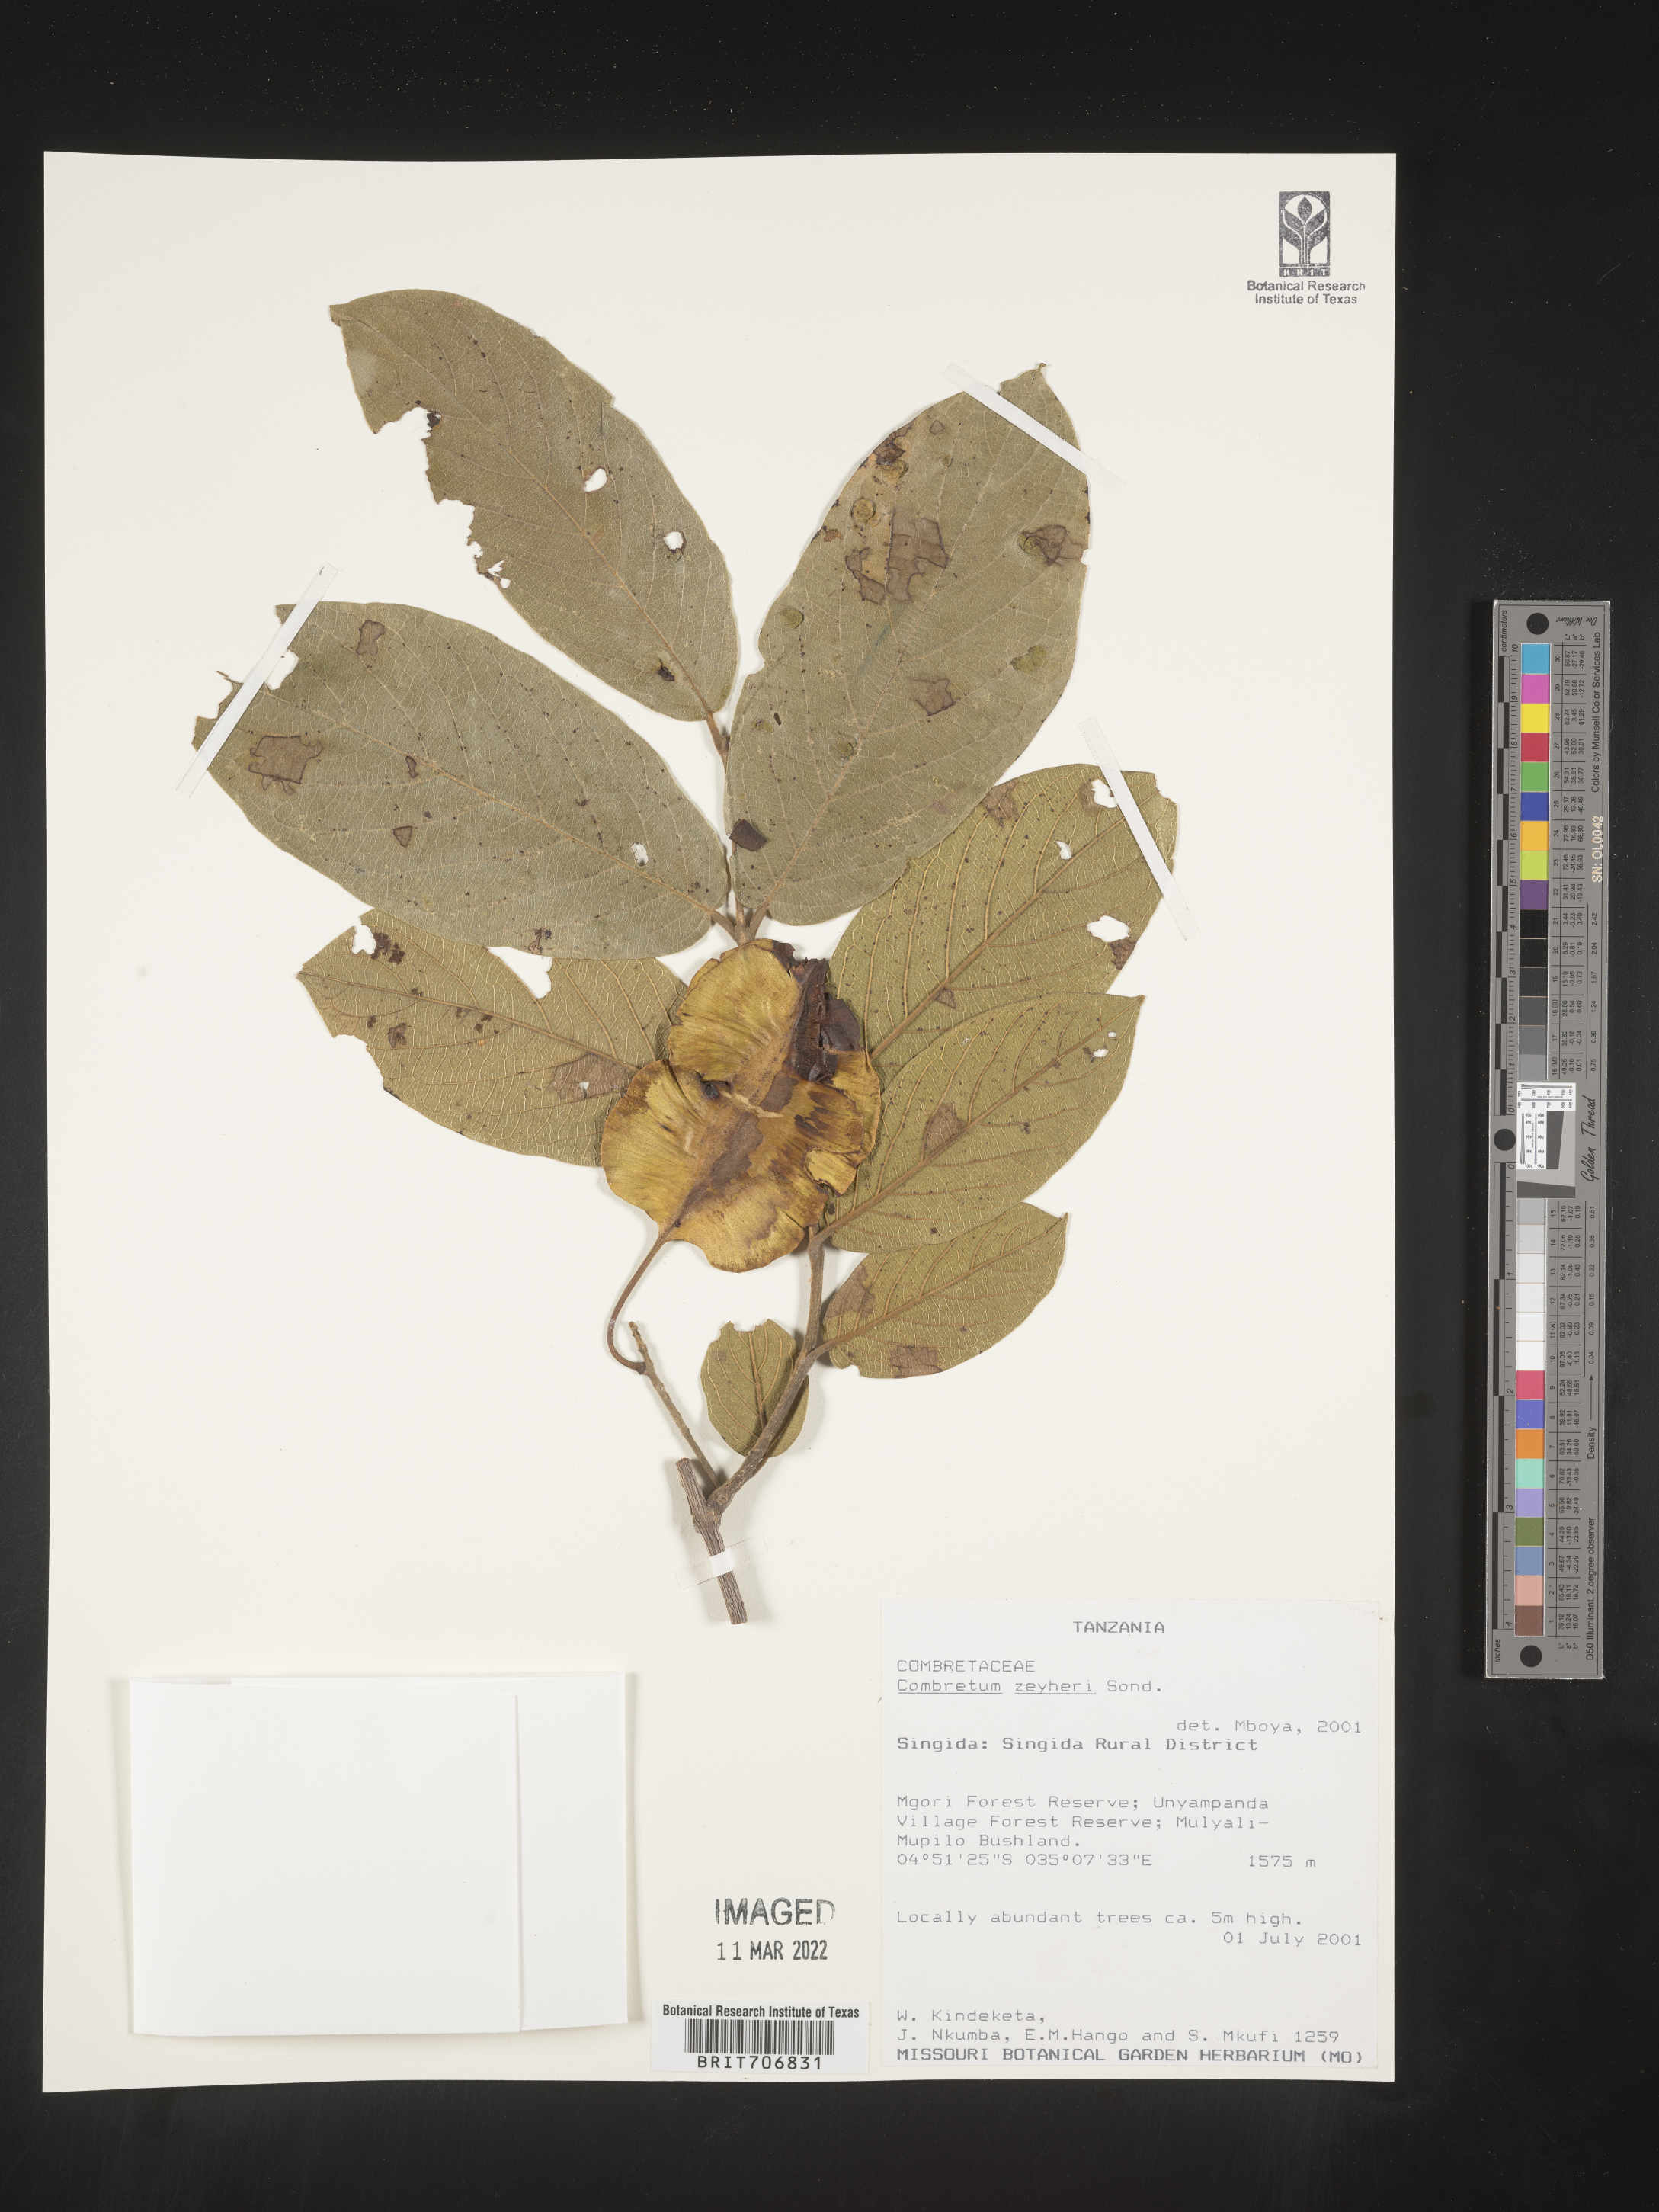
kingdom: Plantae
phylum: Tracheophyta
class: Magnoliopsida
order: Myrtales
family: Combretaceae
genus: Combretum
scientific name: Combretum
